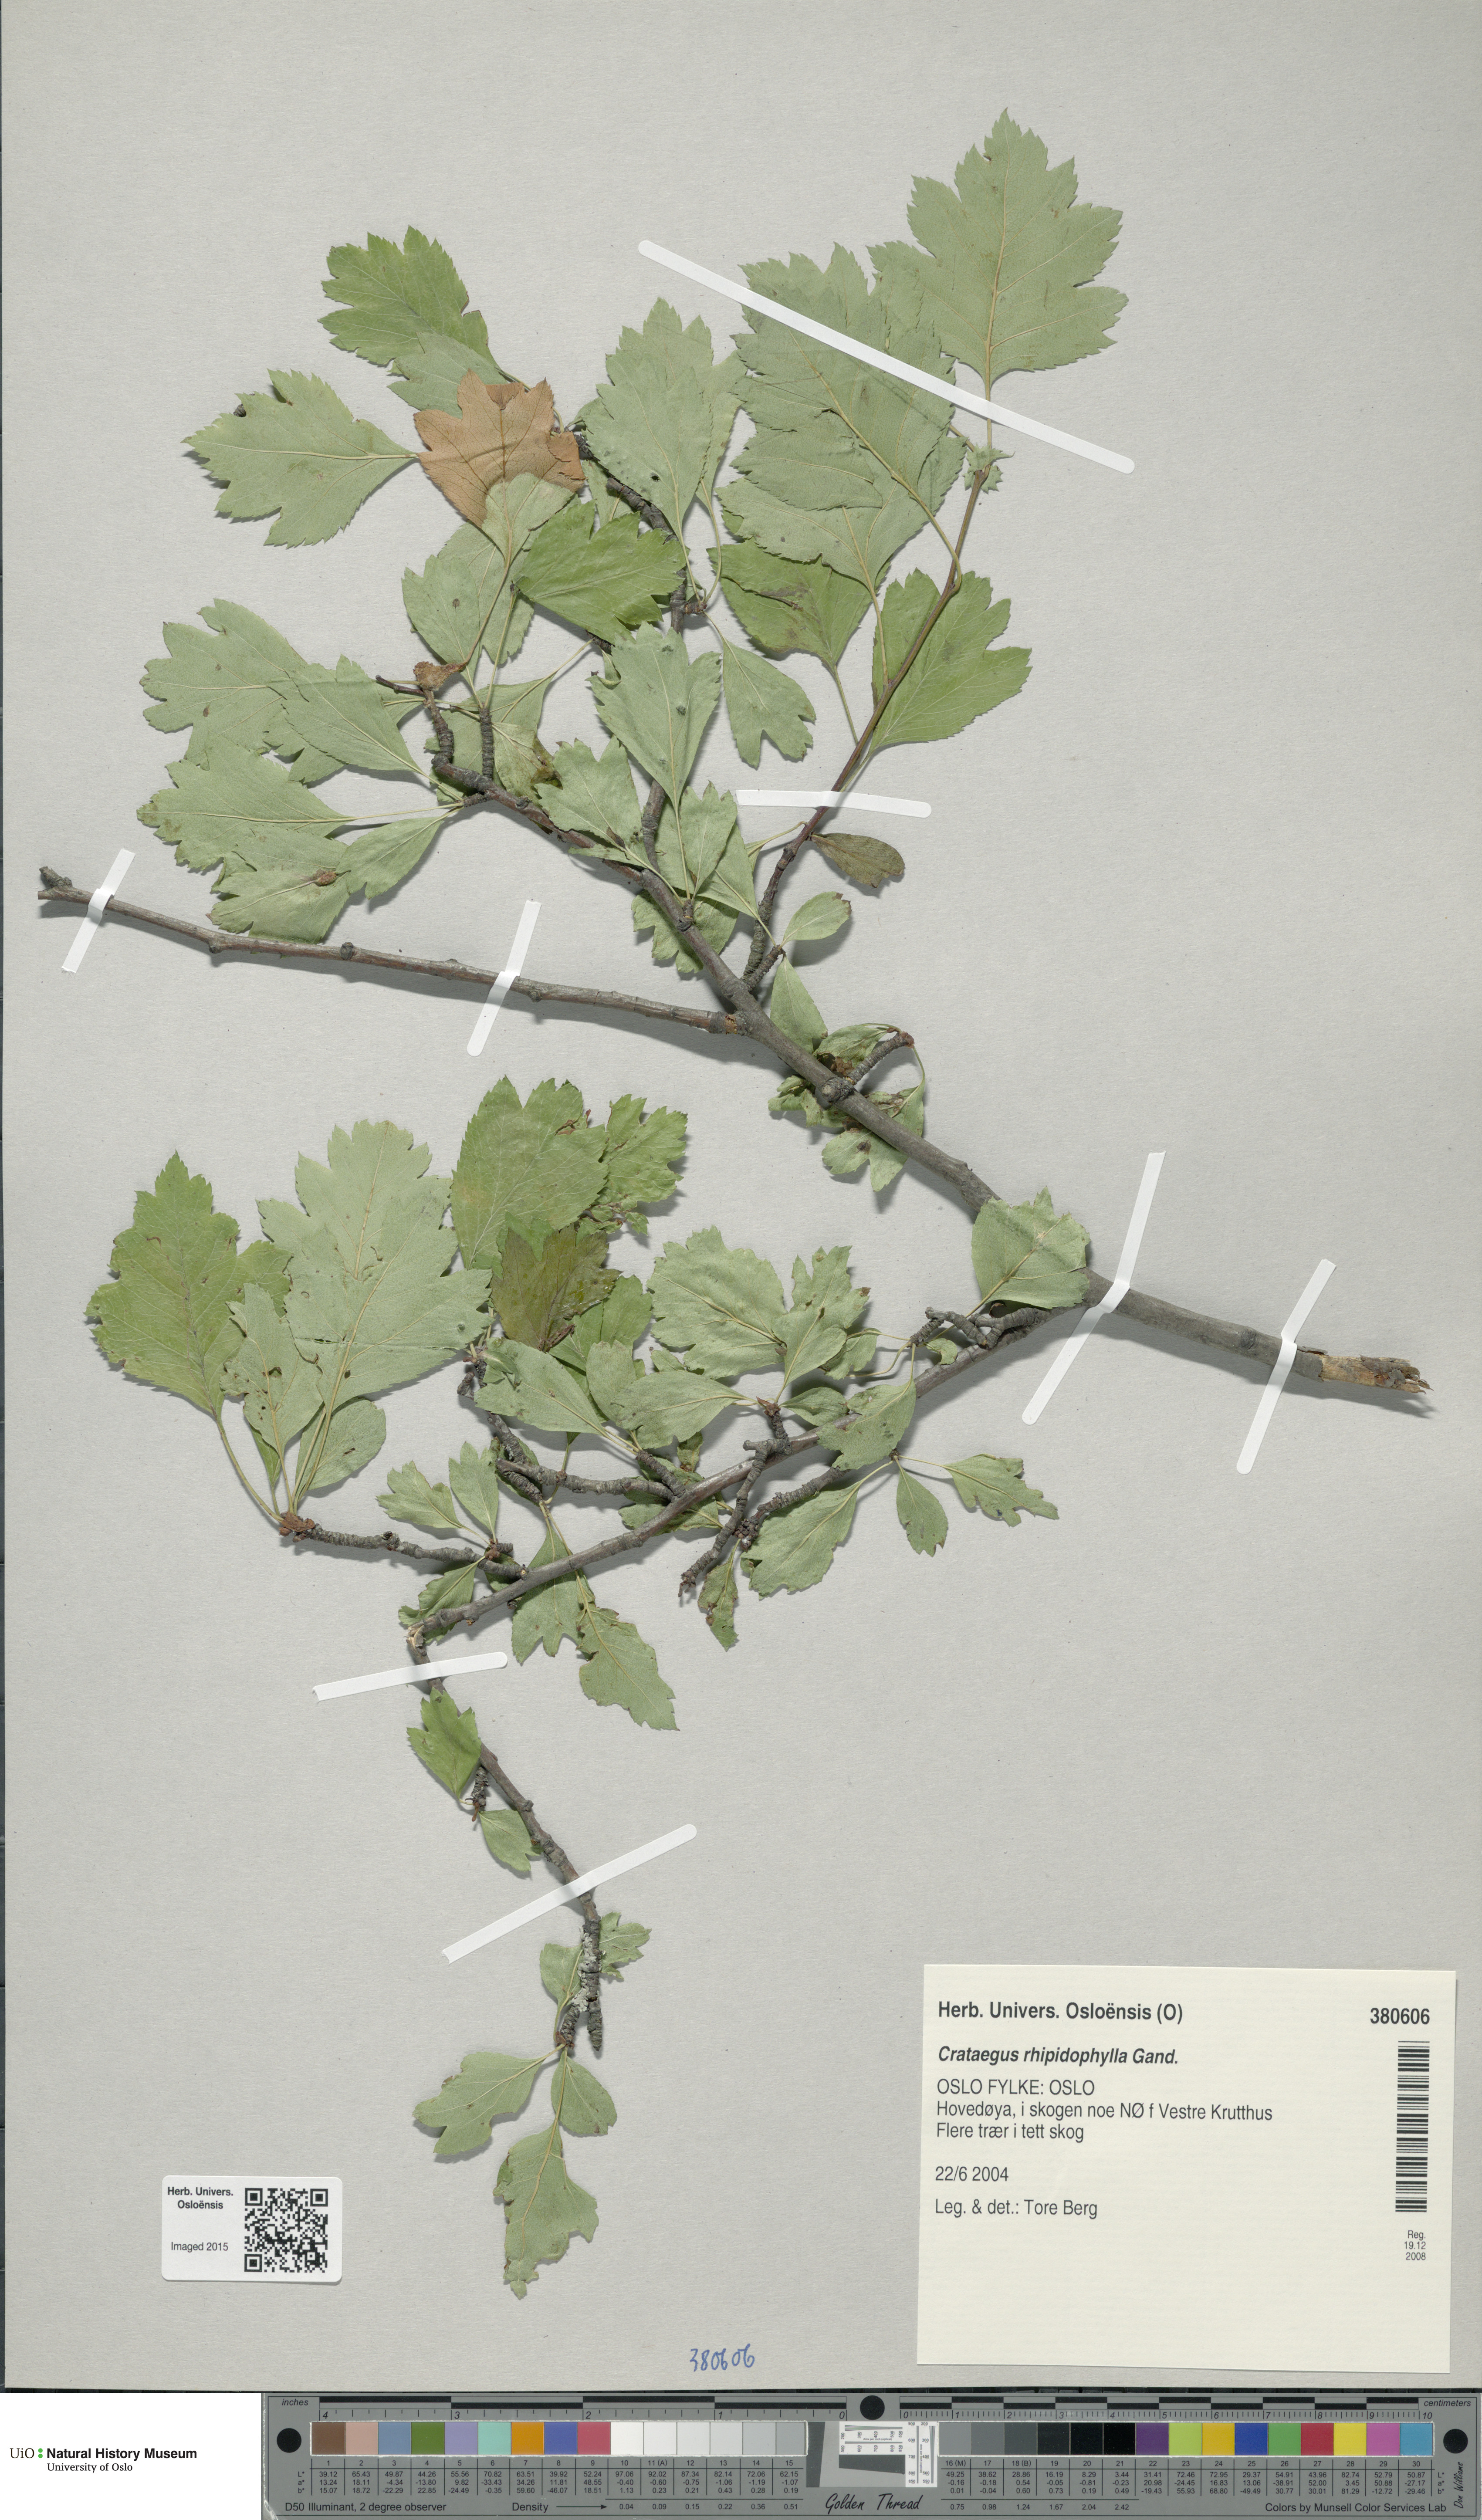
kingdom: Plantae
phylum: Tracheophyta
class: Magnoliopsida
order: Rosales
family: Rosaceae
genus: Crataegus
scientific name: Crataegus rhipidophylla
